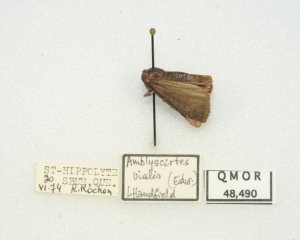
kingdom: Animalia
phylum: Arthropoda
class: Insecta
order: Lepidoptera
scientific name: Lepidoptera
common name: Butterflies
